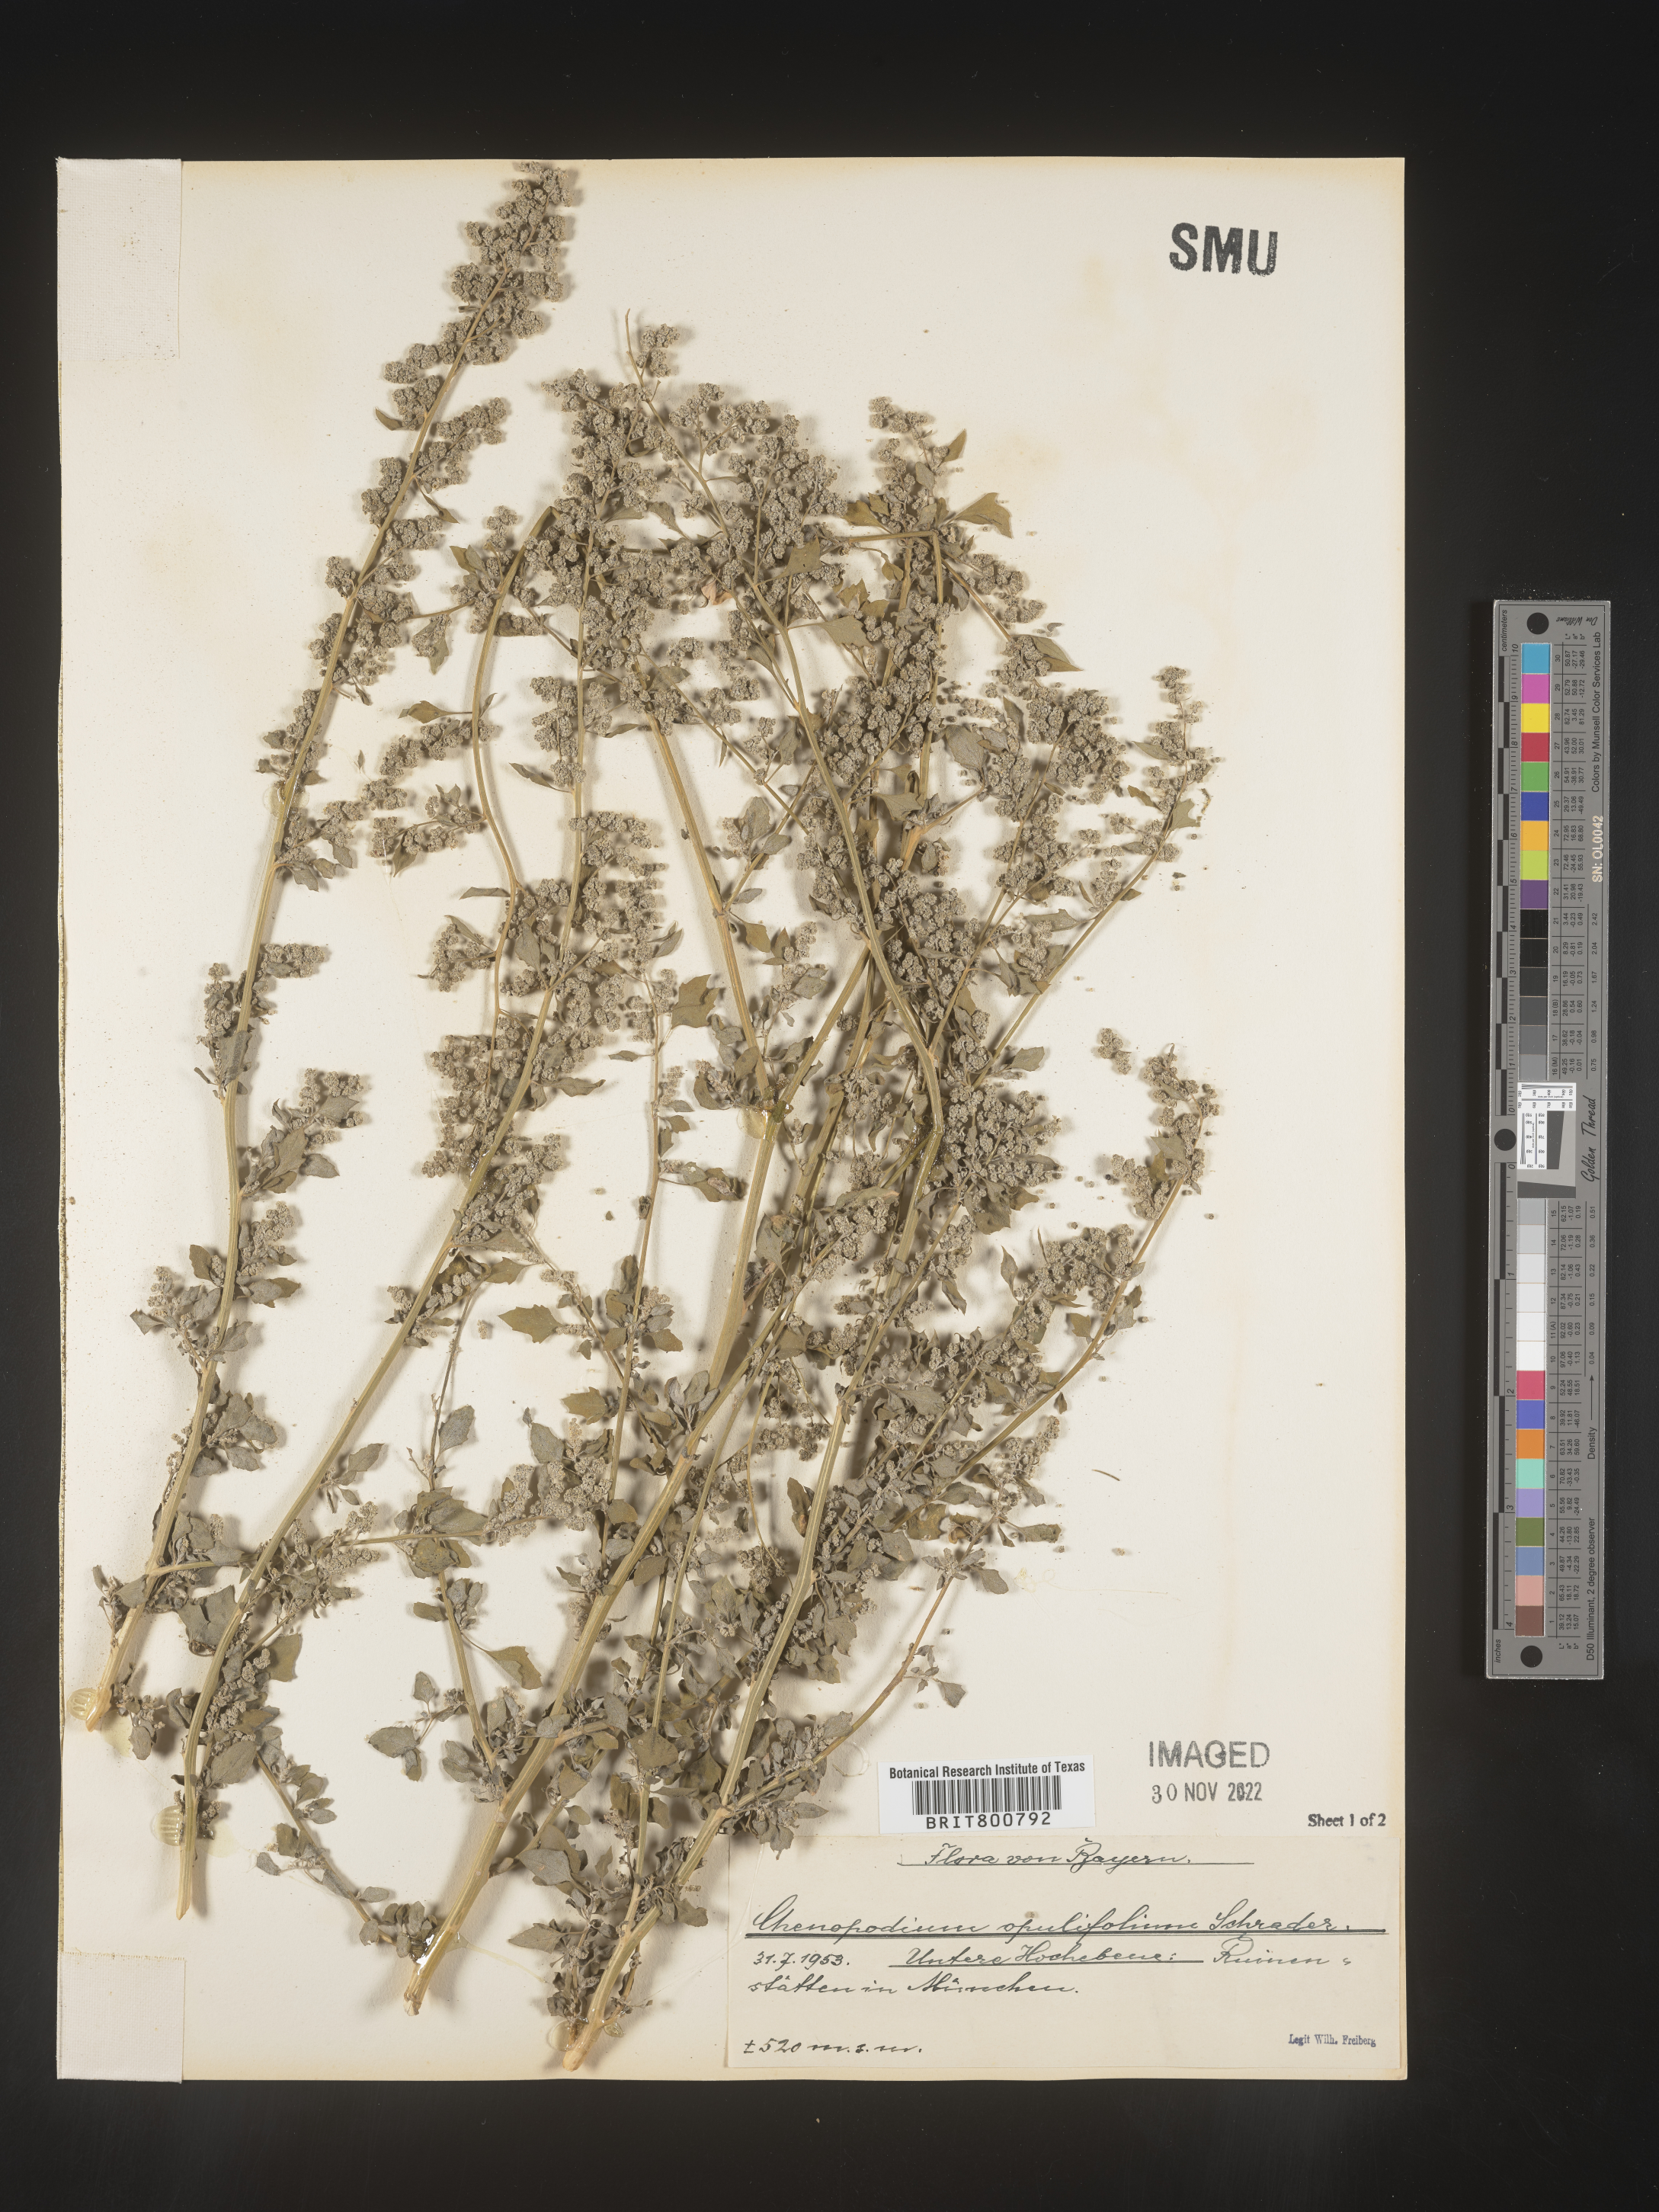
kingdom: Plantae
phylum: Tracheophyta
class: Magnoliopsida
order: Caryophyllales
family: Amaranthaceae
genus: Chenopodium
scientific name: Chenopodium opulifolium
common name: Grey goosefoot
